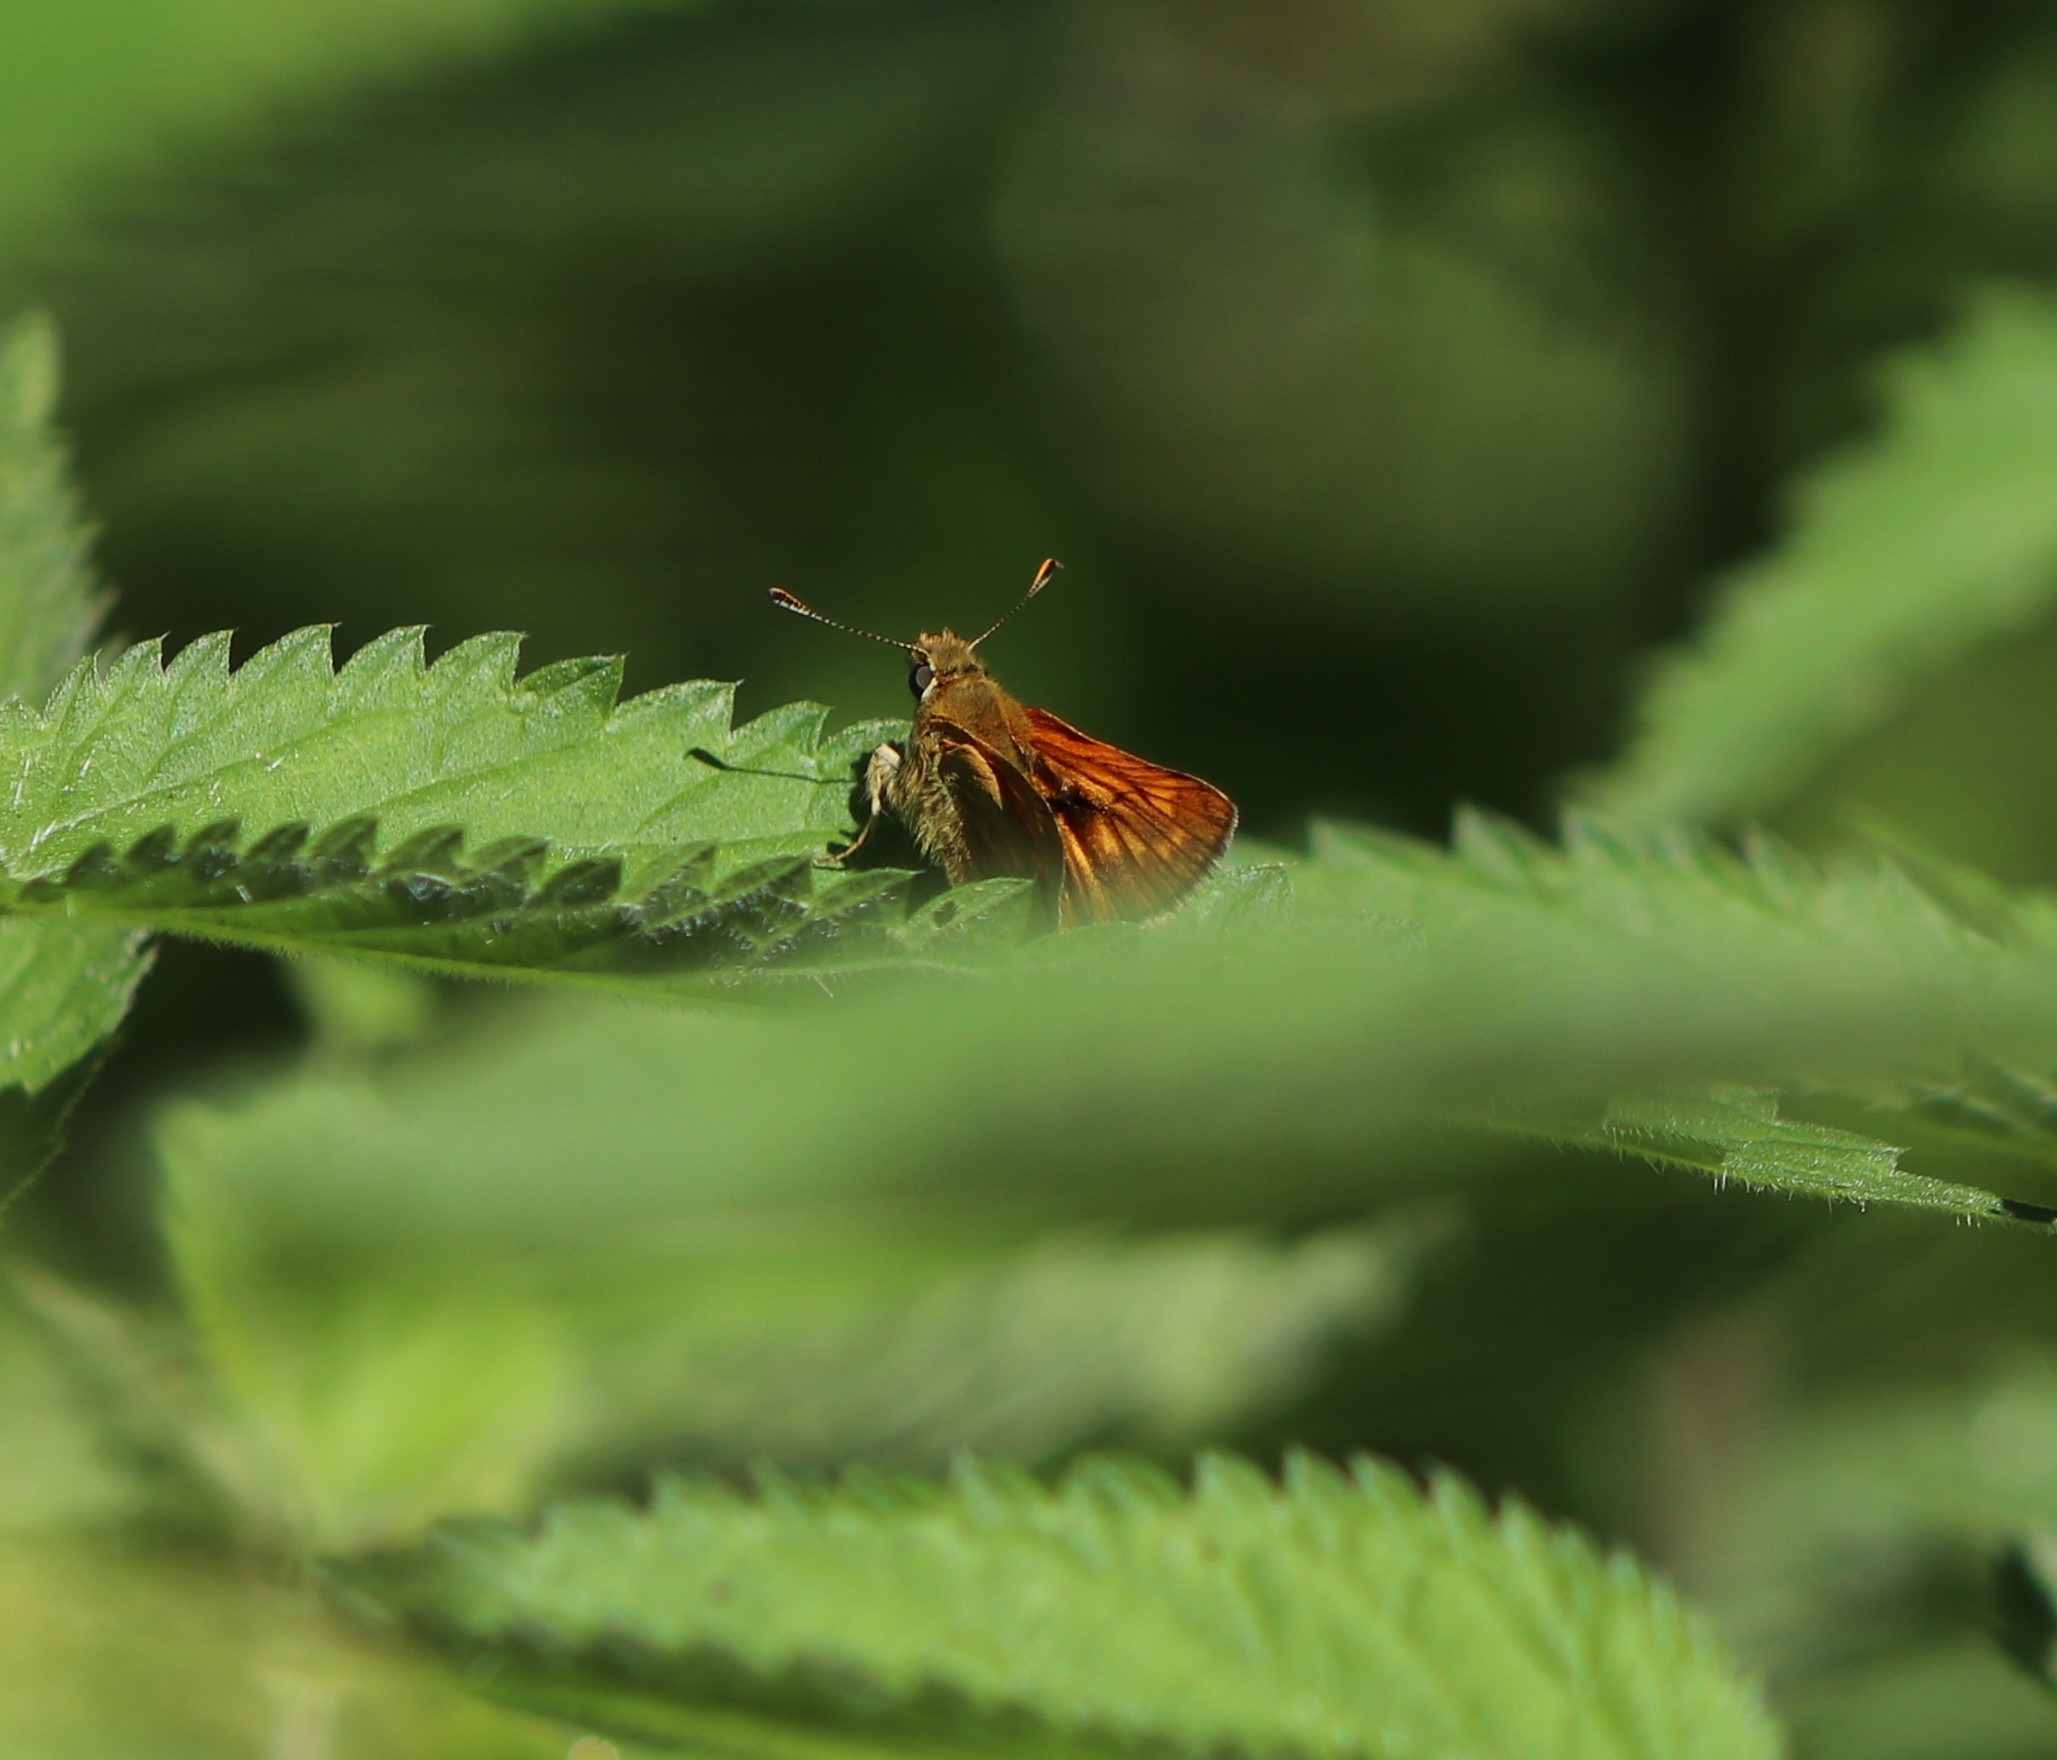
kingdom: Animalia
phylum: Arthropoda
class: Insecta
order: Lepidoptera
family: Hesperiidae
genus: Ochlodes
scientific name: Ochlodes venata
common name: Stor bredpande
